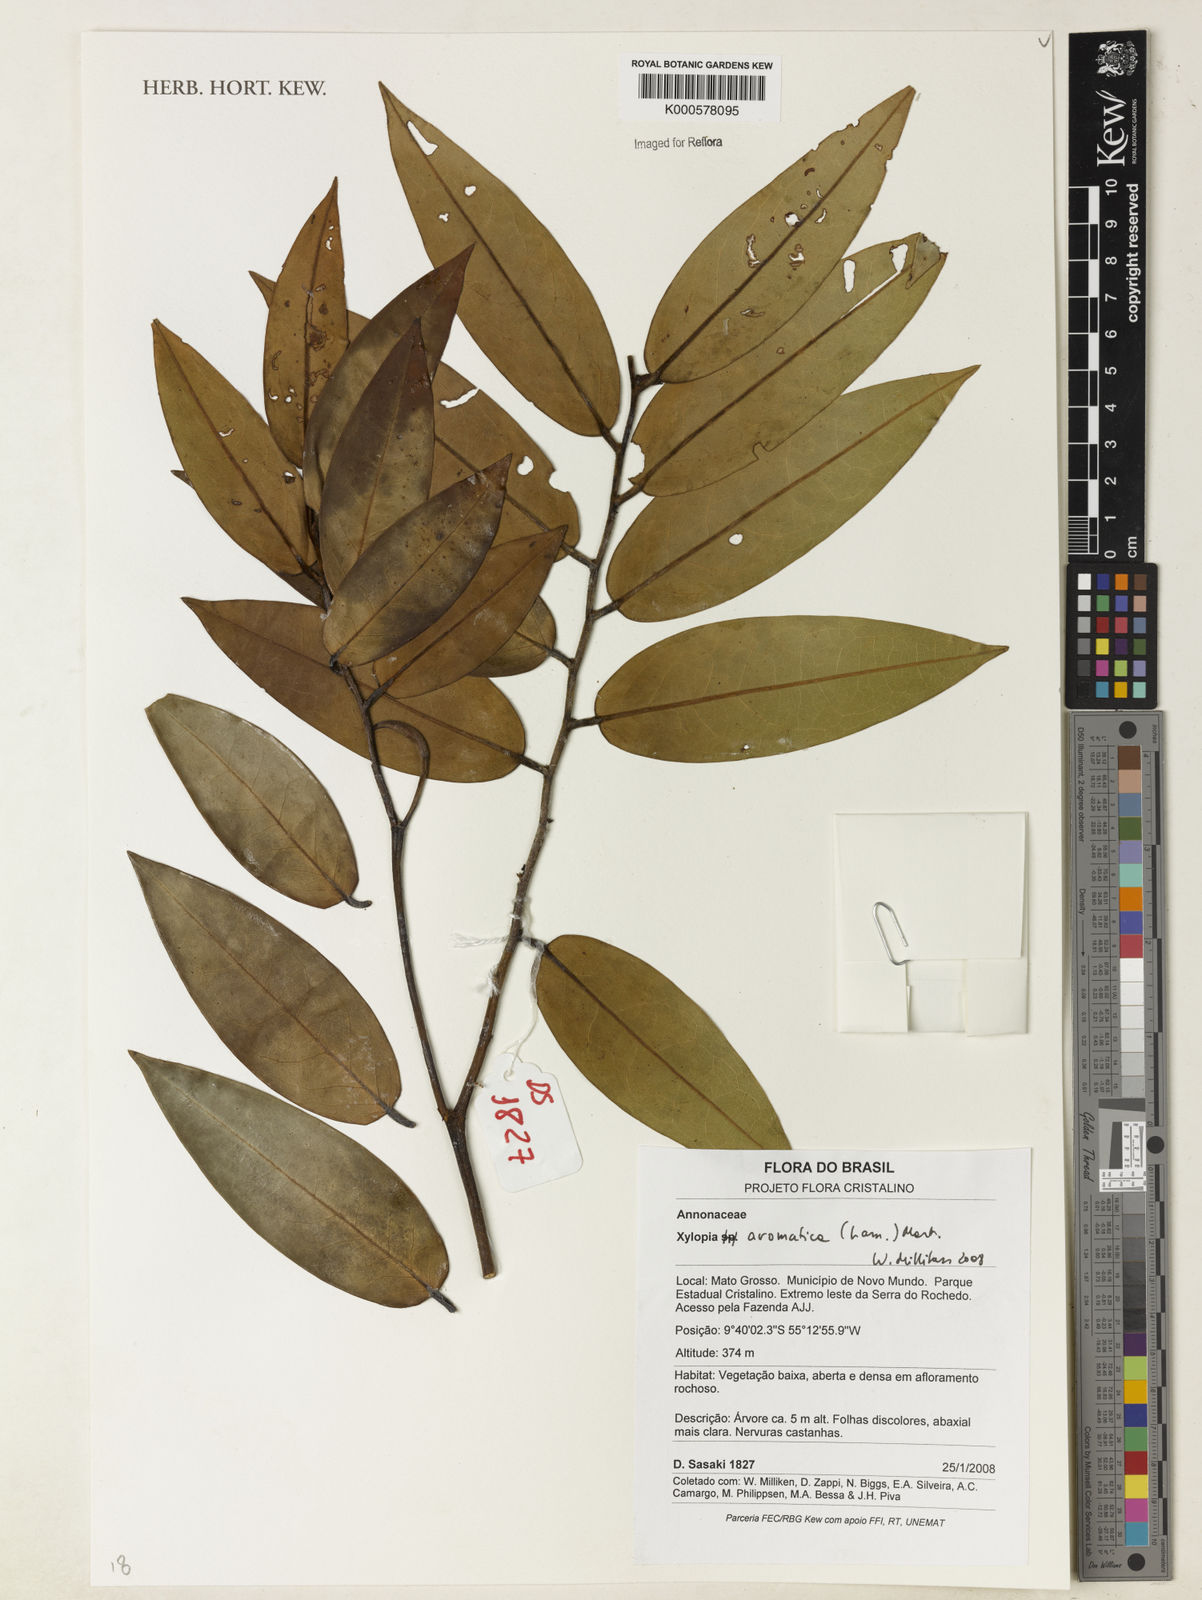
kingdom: Plantae
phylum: Tracheophyta
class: Magnoliopsida
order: Magnoliales
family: Annonaceae
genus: Xylopia
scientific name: Xylopia aromatica
